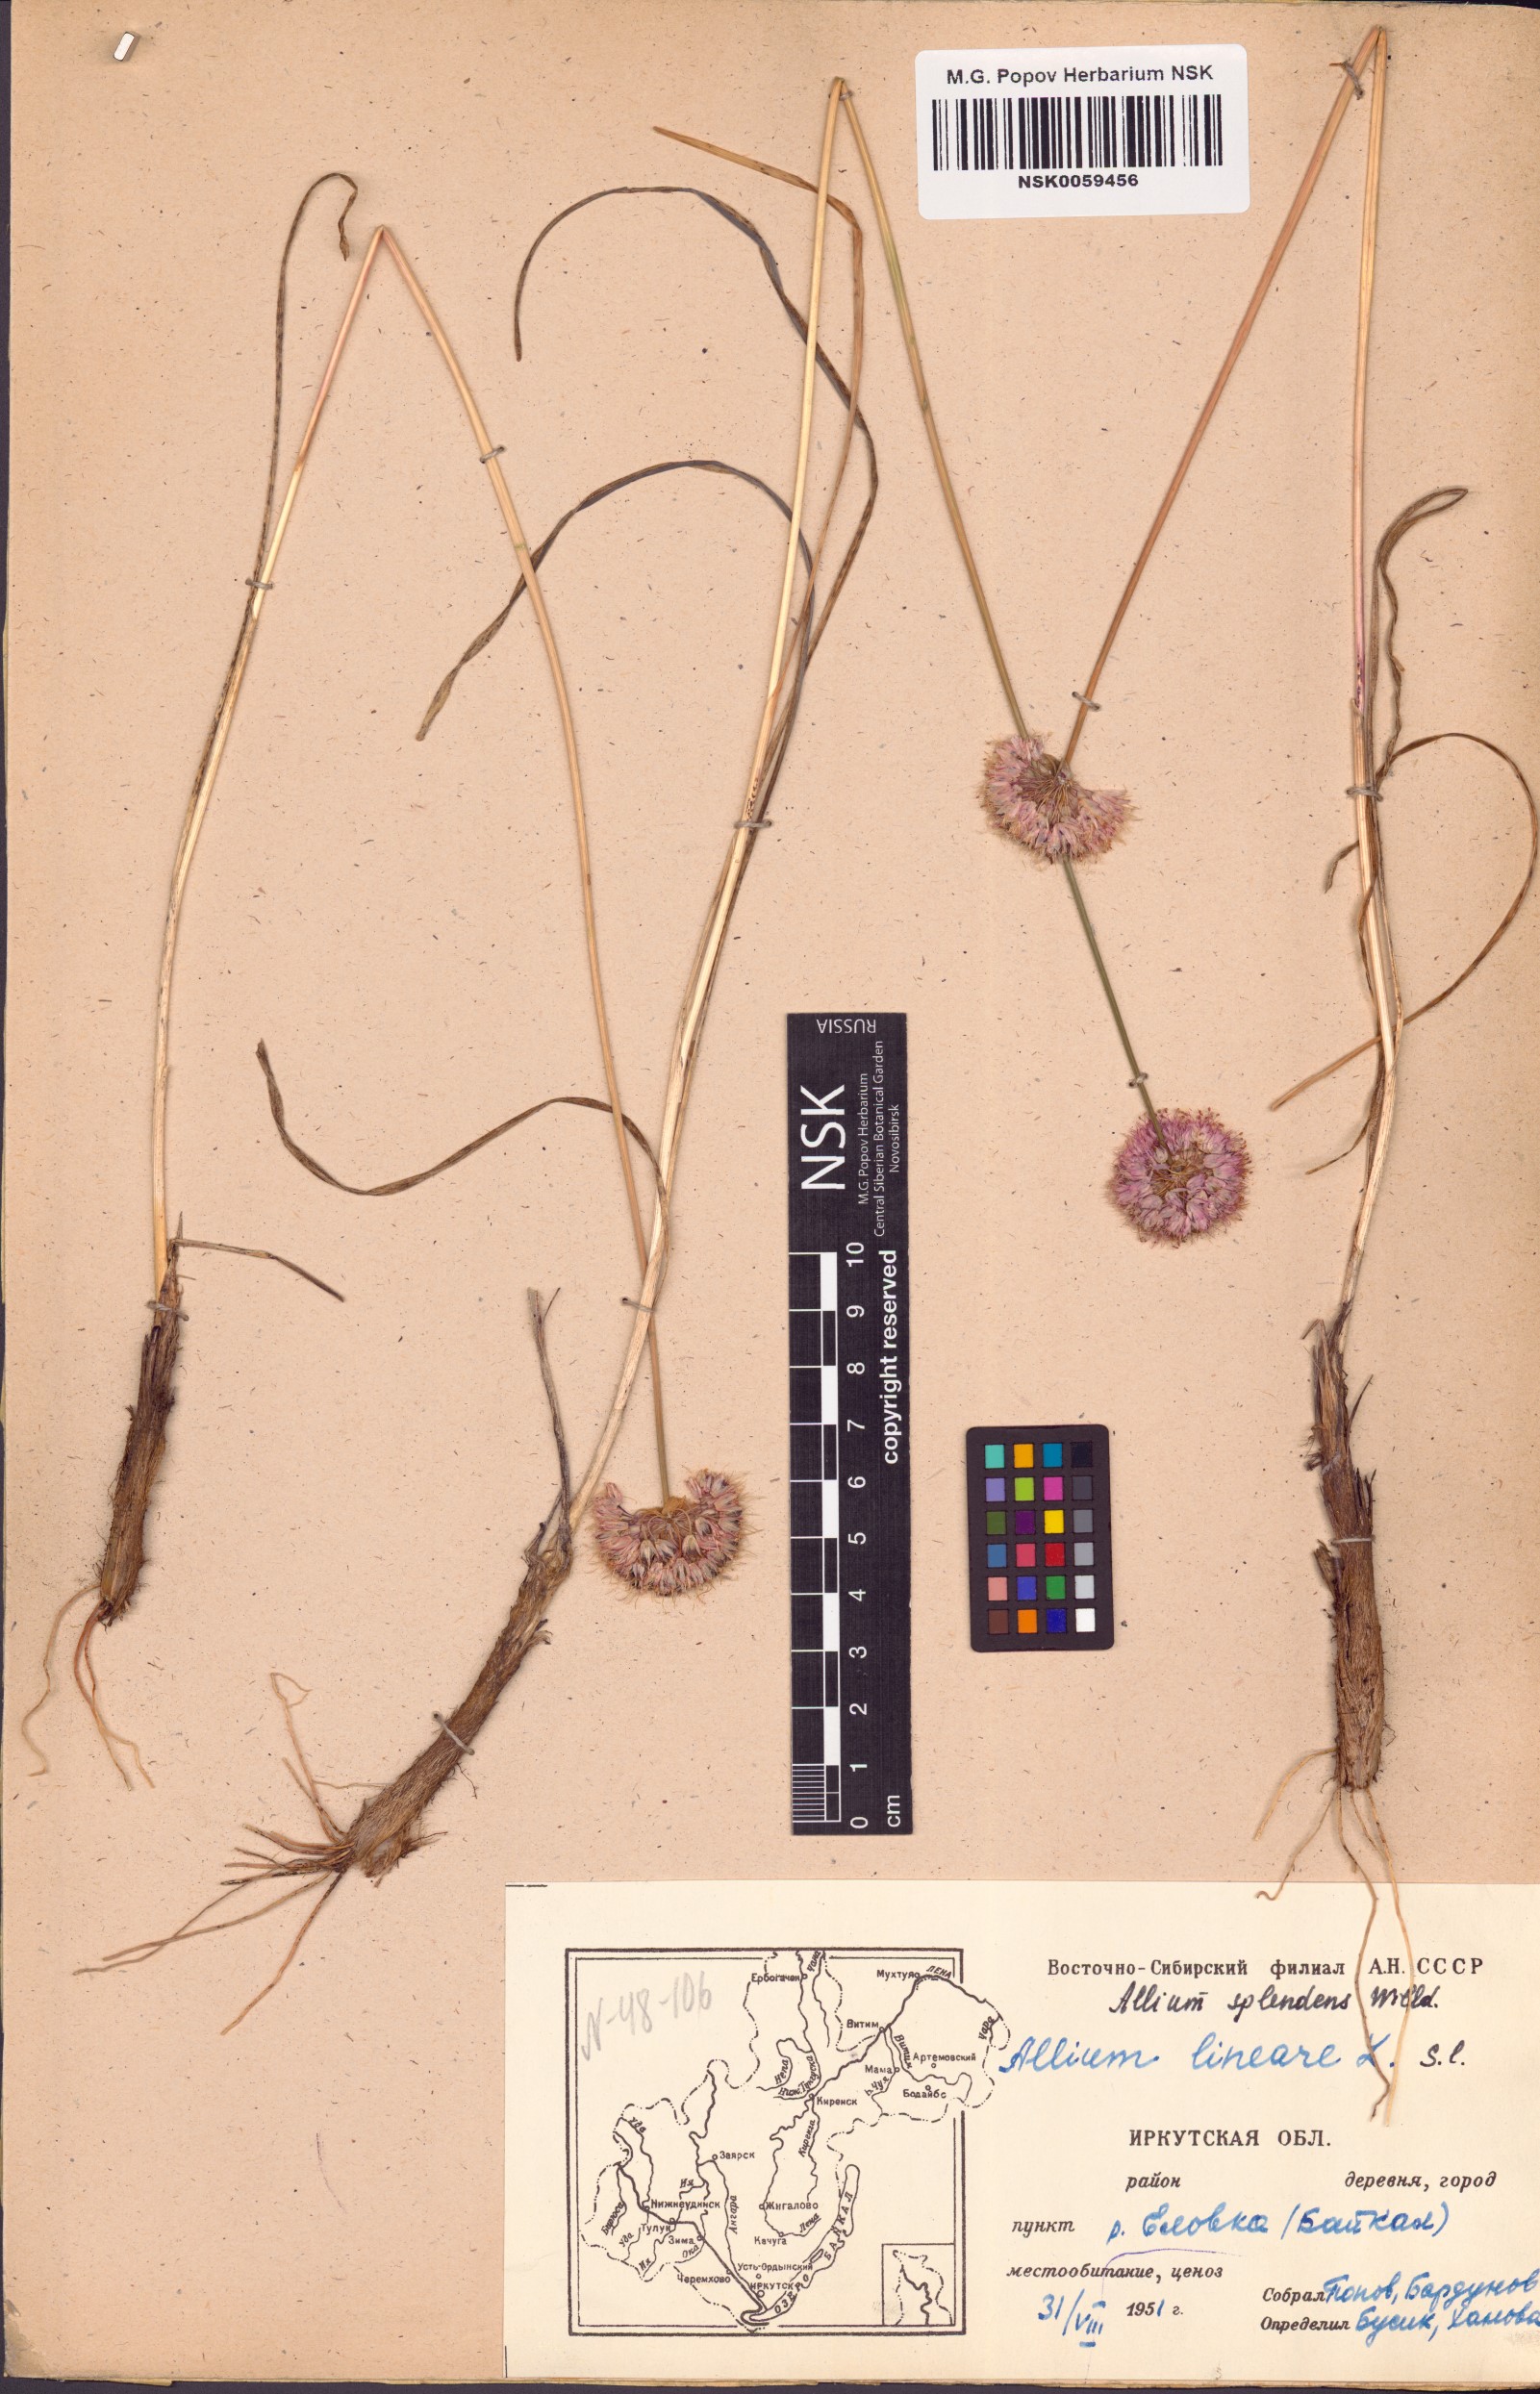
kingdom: Plantae
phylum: Tracheophyta
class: Liliopsida
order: Asparagales
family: Amaryllidaceae
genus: Allium
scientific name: Allium splendens
